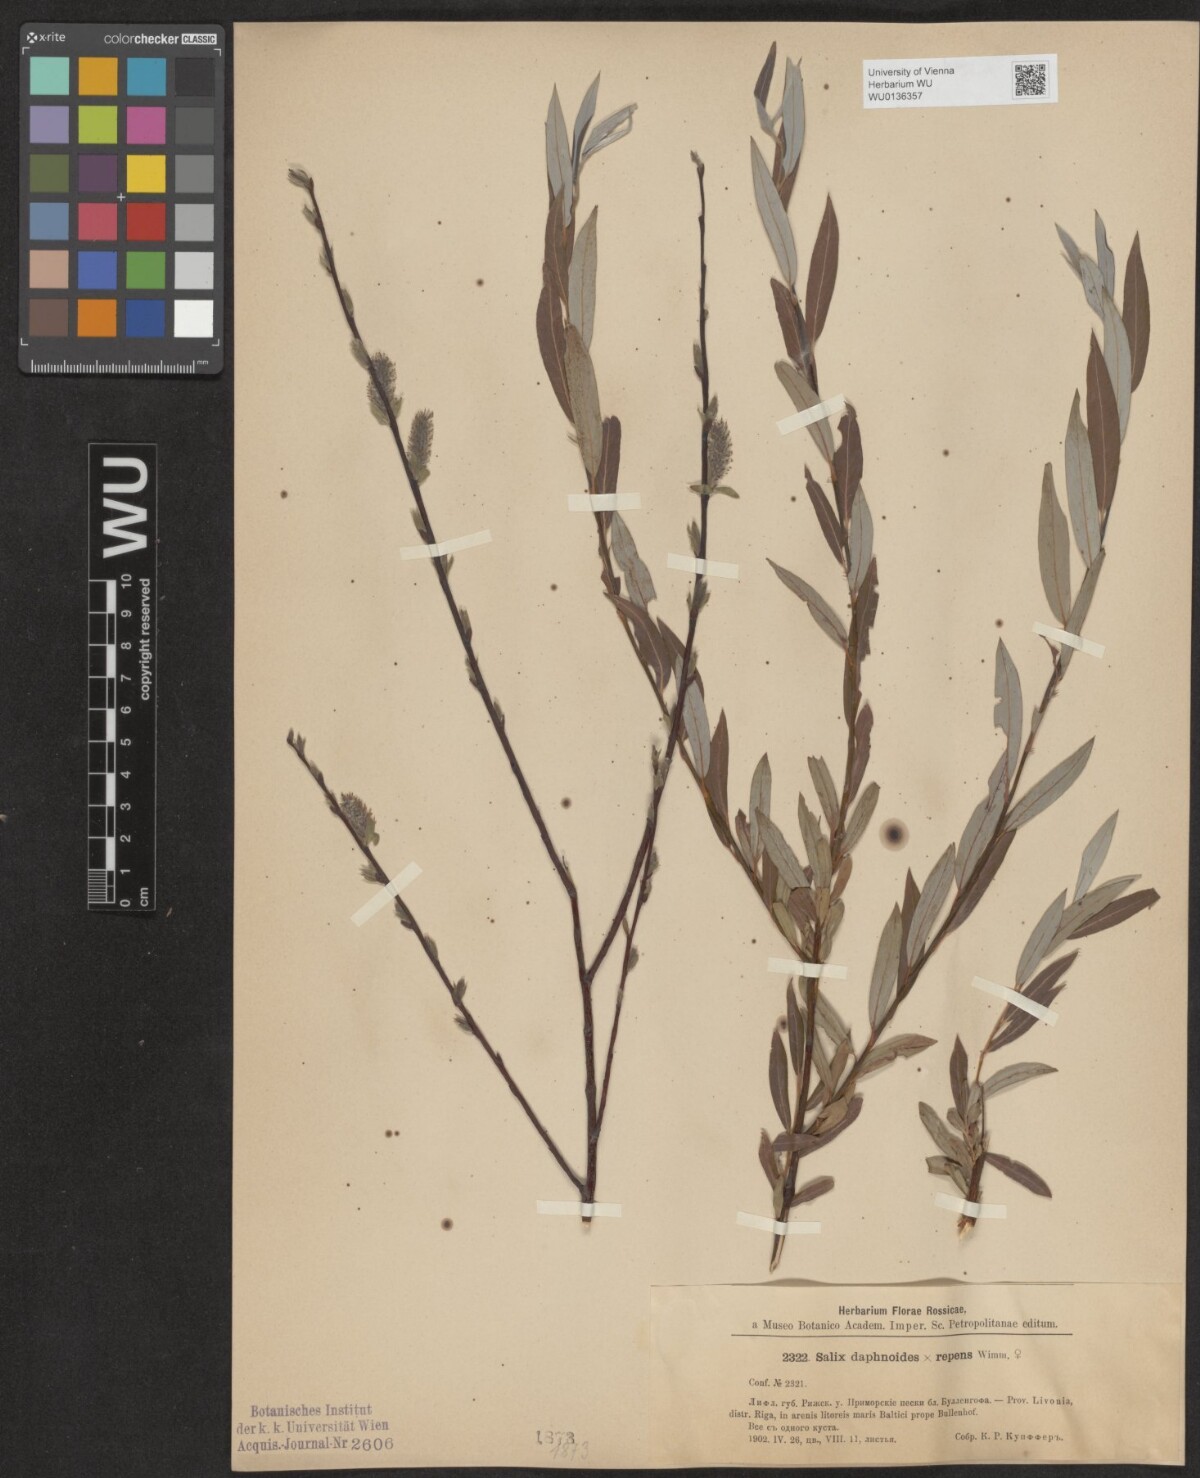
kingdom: Plantae
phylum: Tracheophyta
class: Magnoliopsida
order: Malpighiales
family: Salicaceae
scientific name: Salicaceae
